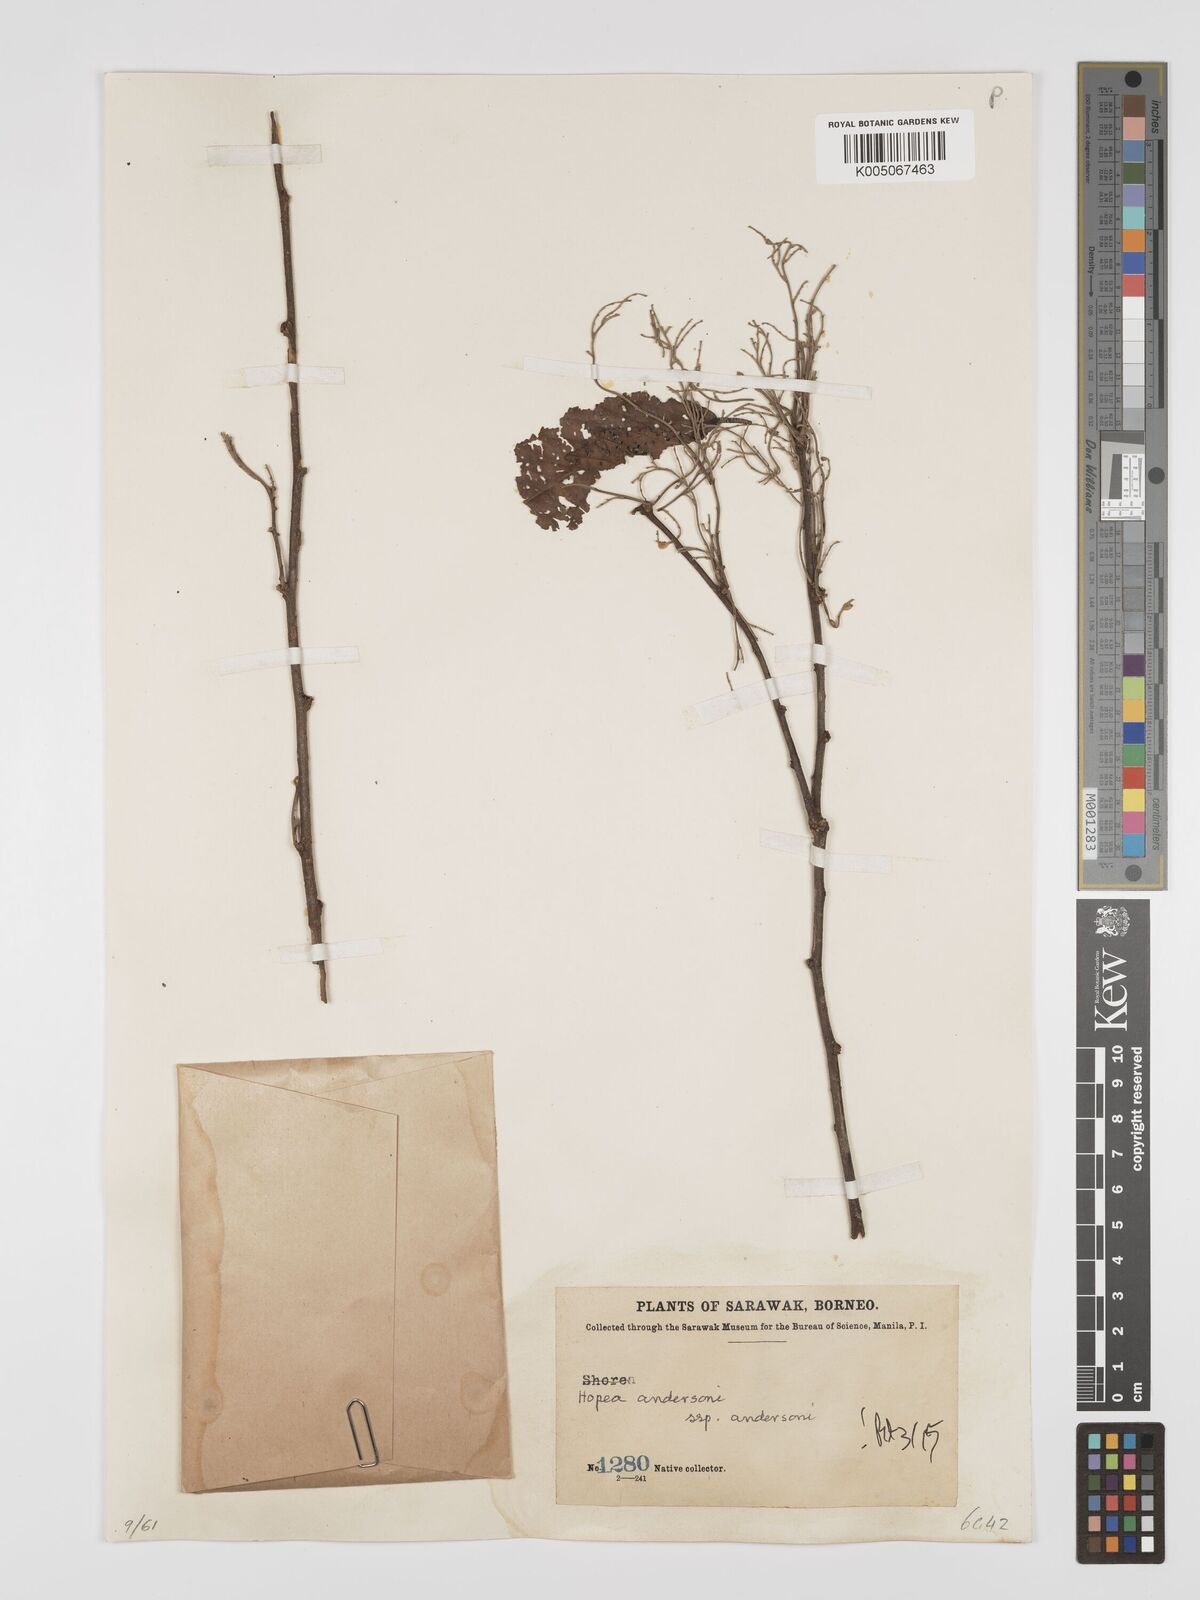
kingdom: Plantae
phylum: Tracheophyta
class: Magnoliopsida
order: Malvales
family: Dipterocarpaceae
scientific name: Dipterocarpaceae
